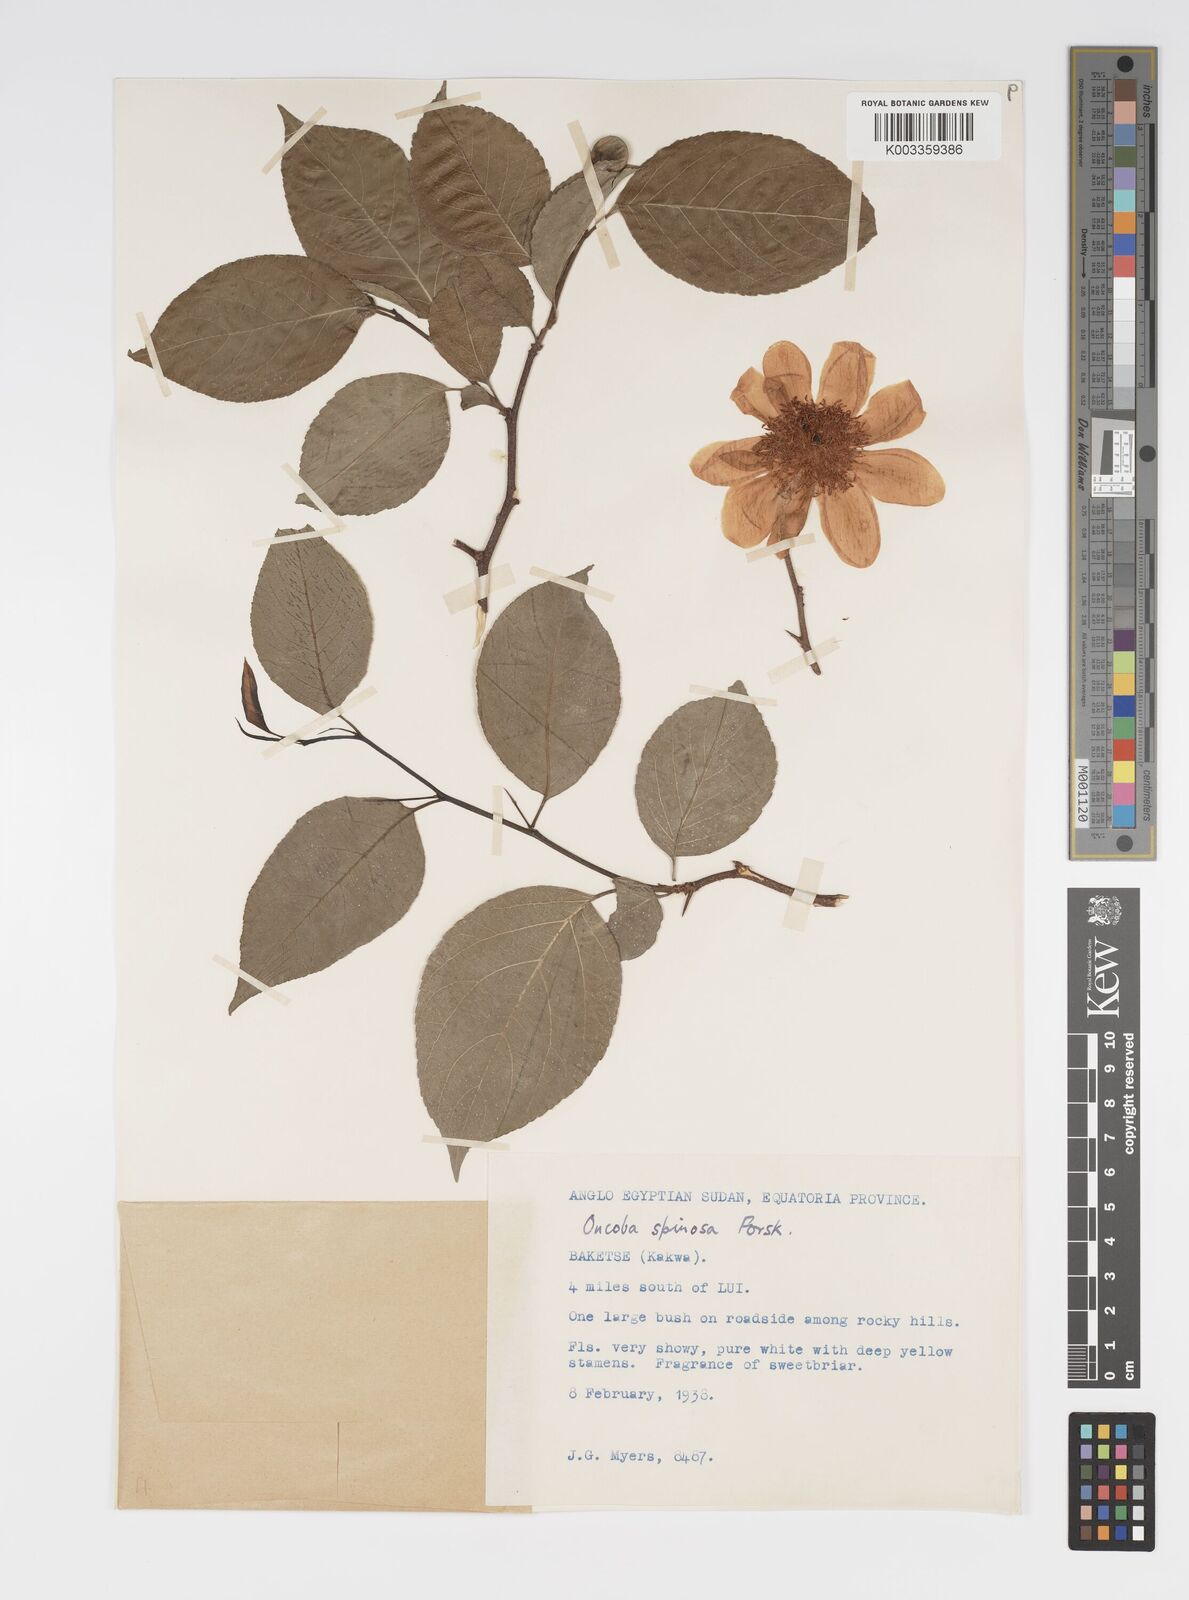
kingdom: Plantae
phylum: Tracheophyta
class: Magnoliopsida
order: Malpighiales
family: Salicaceae
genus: Oncoba
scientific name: Oncoba spinosa
